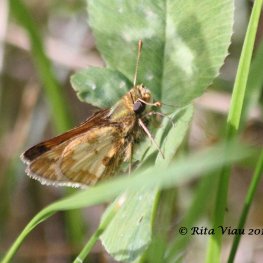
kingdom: Animalia
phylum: Arthropoda
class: Insecta
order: Lepidoptera
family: Hesperiidae
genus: Polites
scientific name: Polites coras
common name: Peck's Skipper
